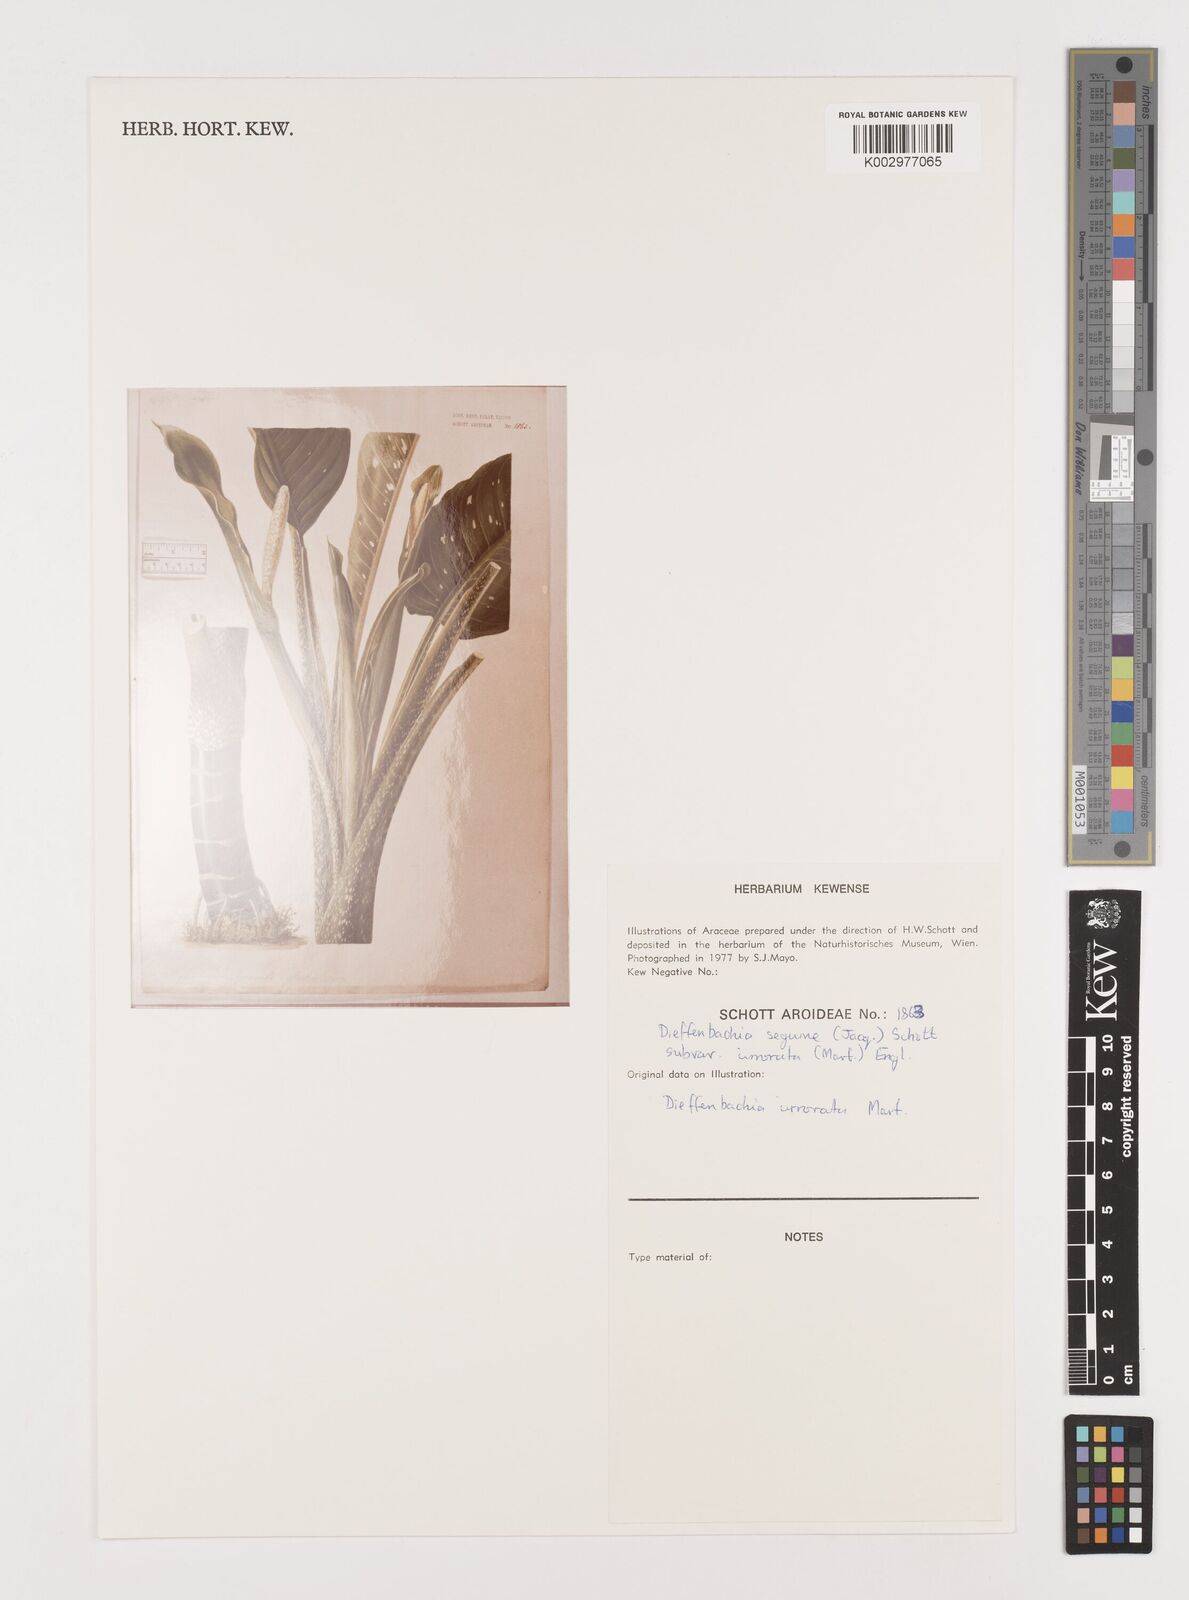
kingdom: Plantae
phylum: Tracheophyta
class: Liliopsida
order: Alismatales
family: Araceae
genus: Dieffenbachia
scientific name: Dieffenbachia seguine
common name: Dumbcane
